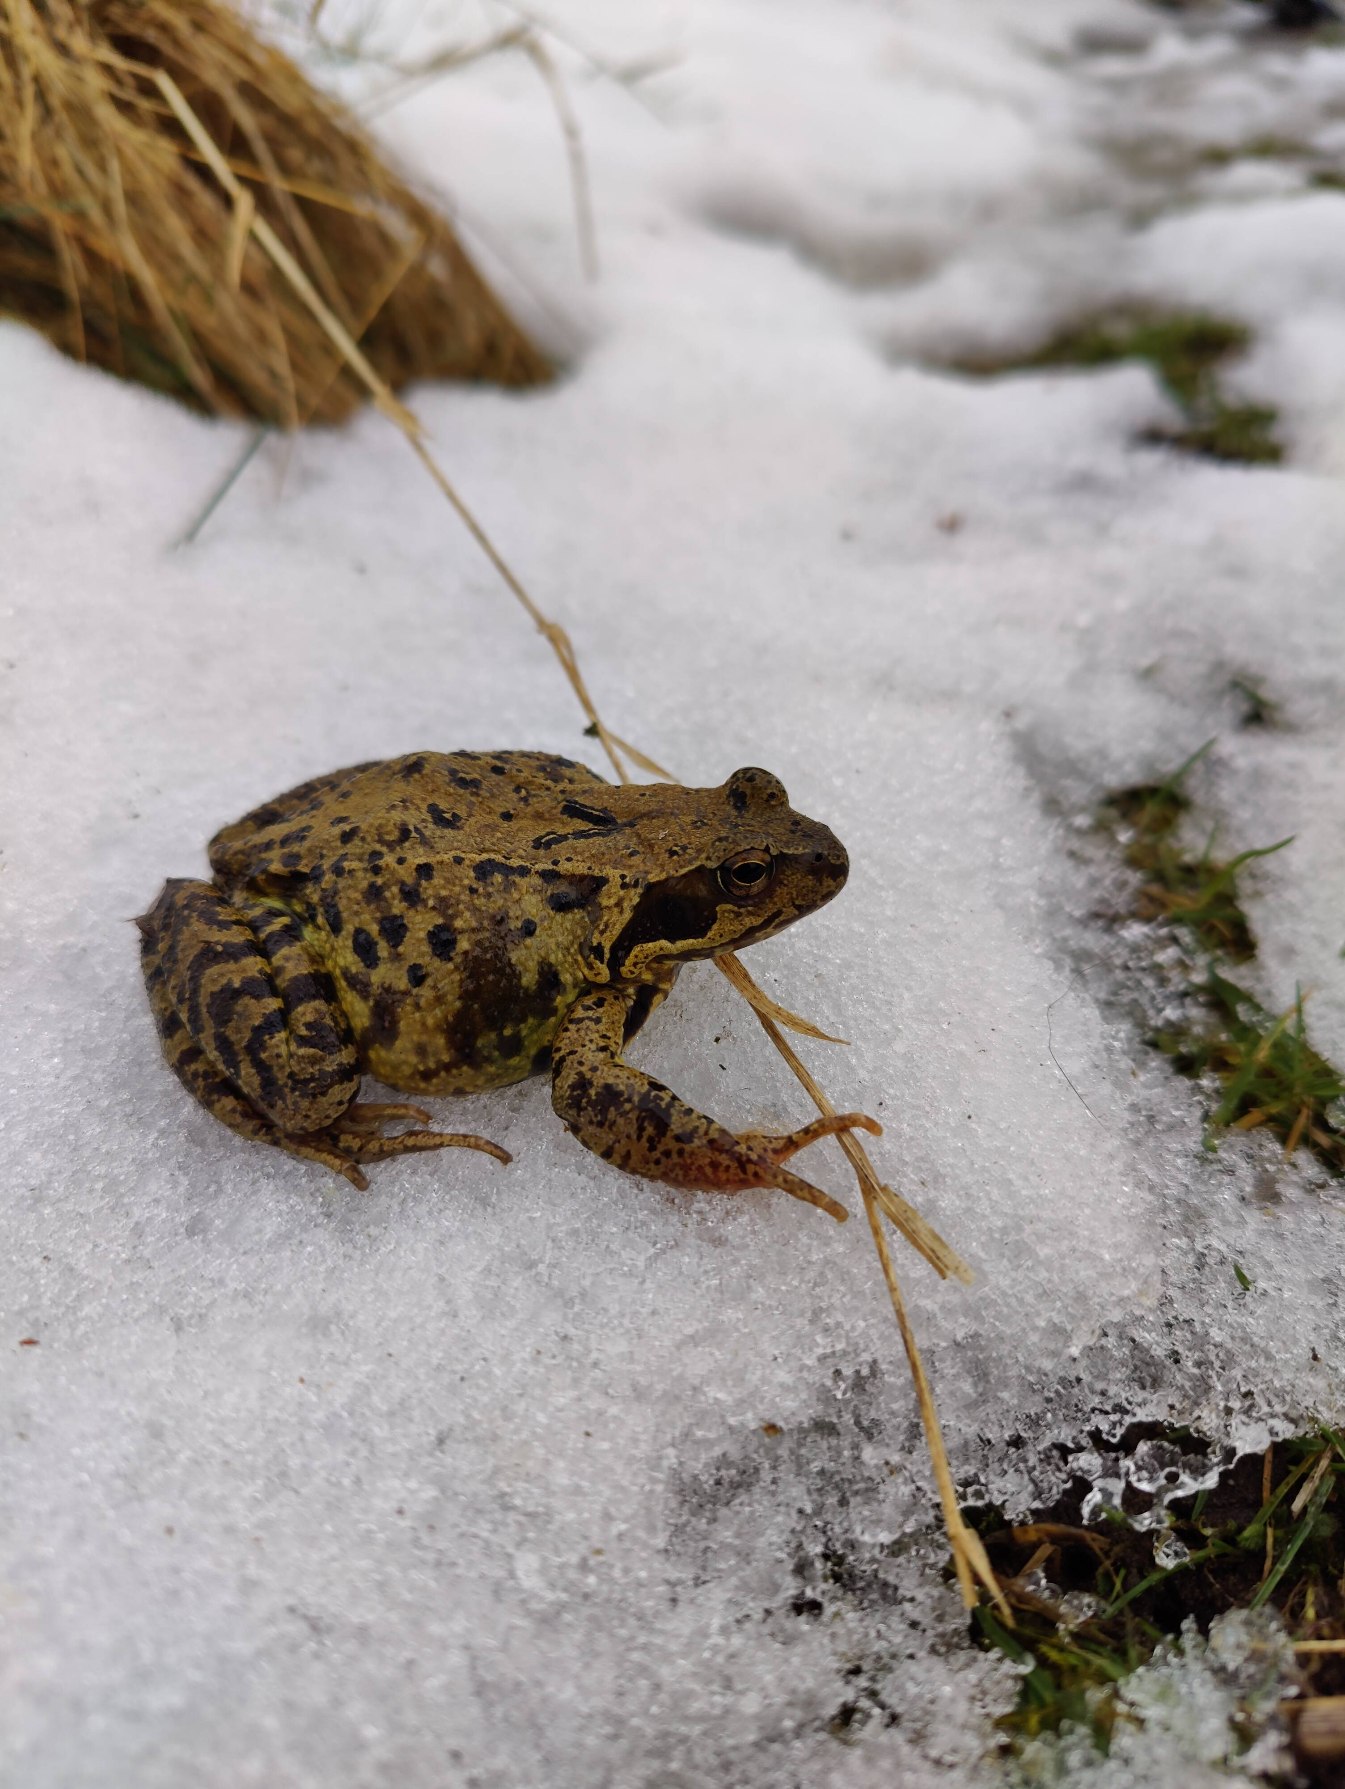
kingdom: Animalia
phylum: Chordata
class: Amphibia
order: Anura
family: Ranidae
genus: Rana
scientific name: Rana temporaria
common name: Butsnudet frø
